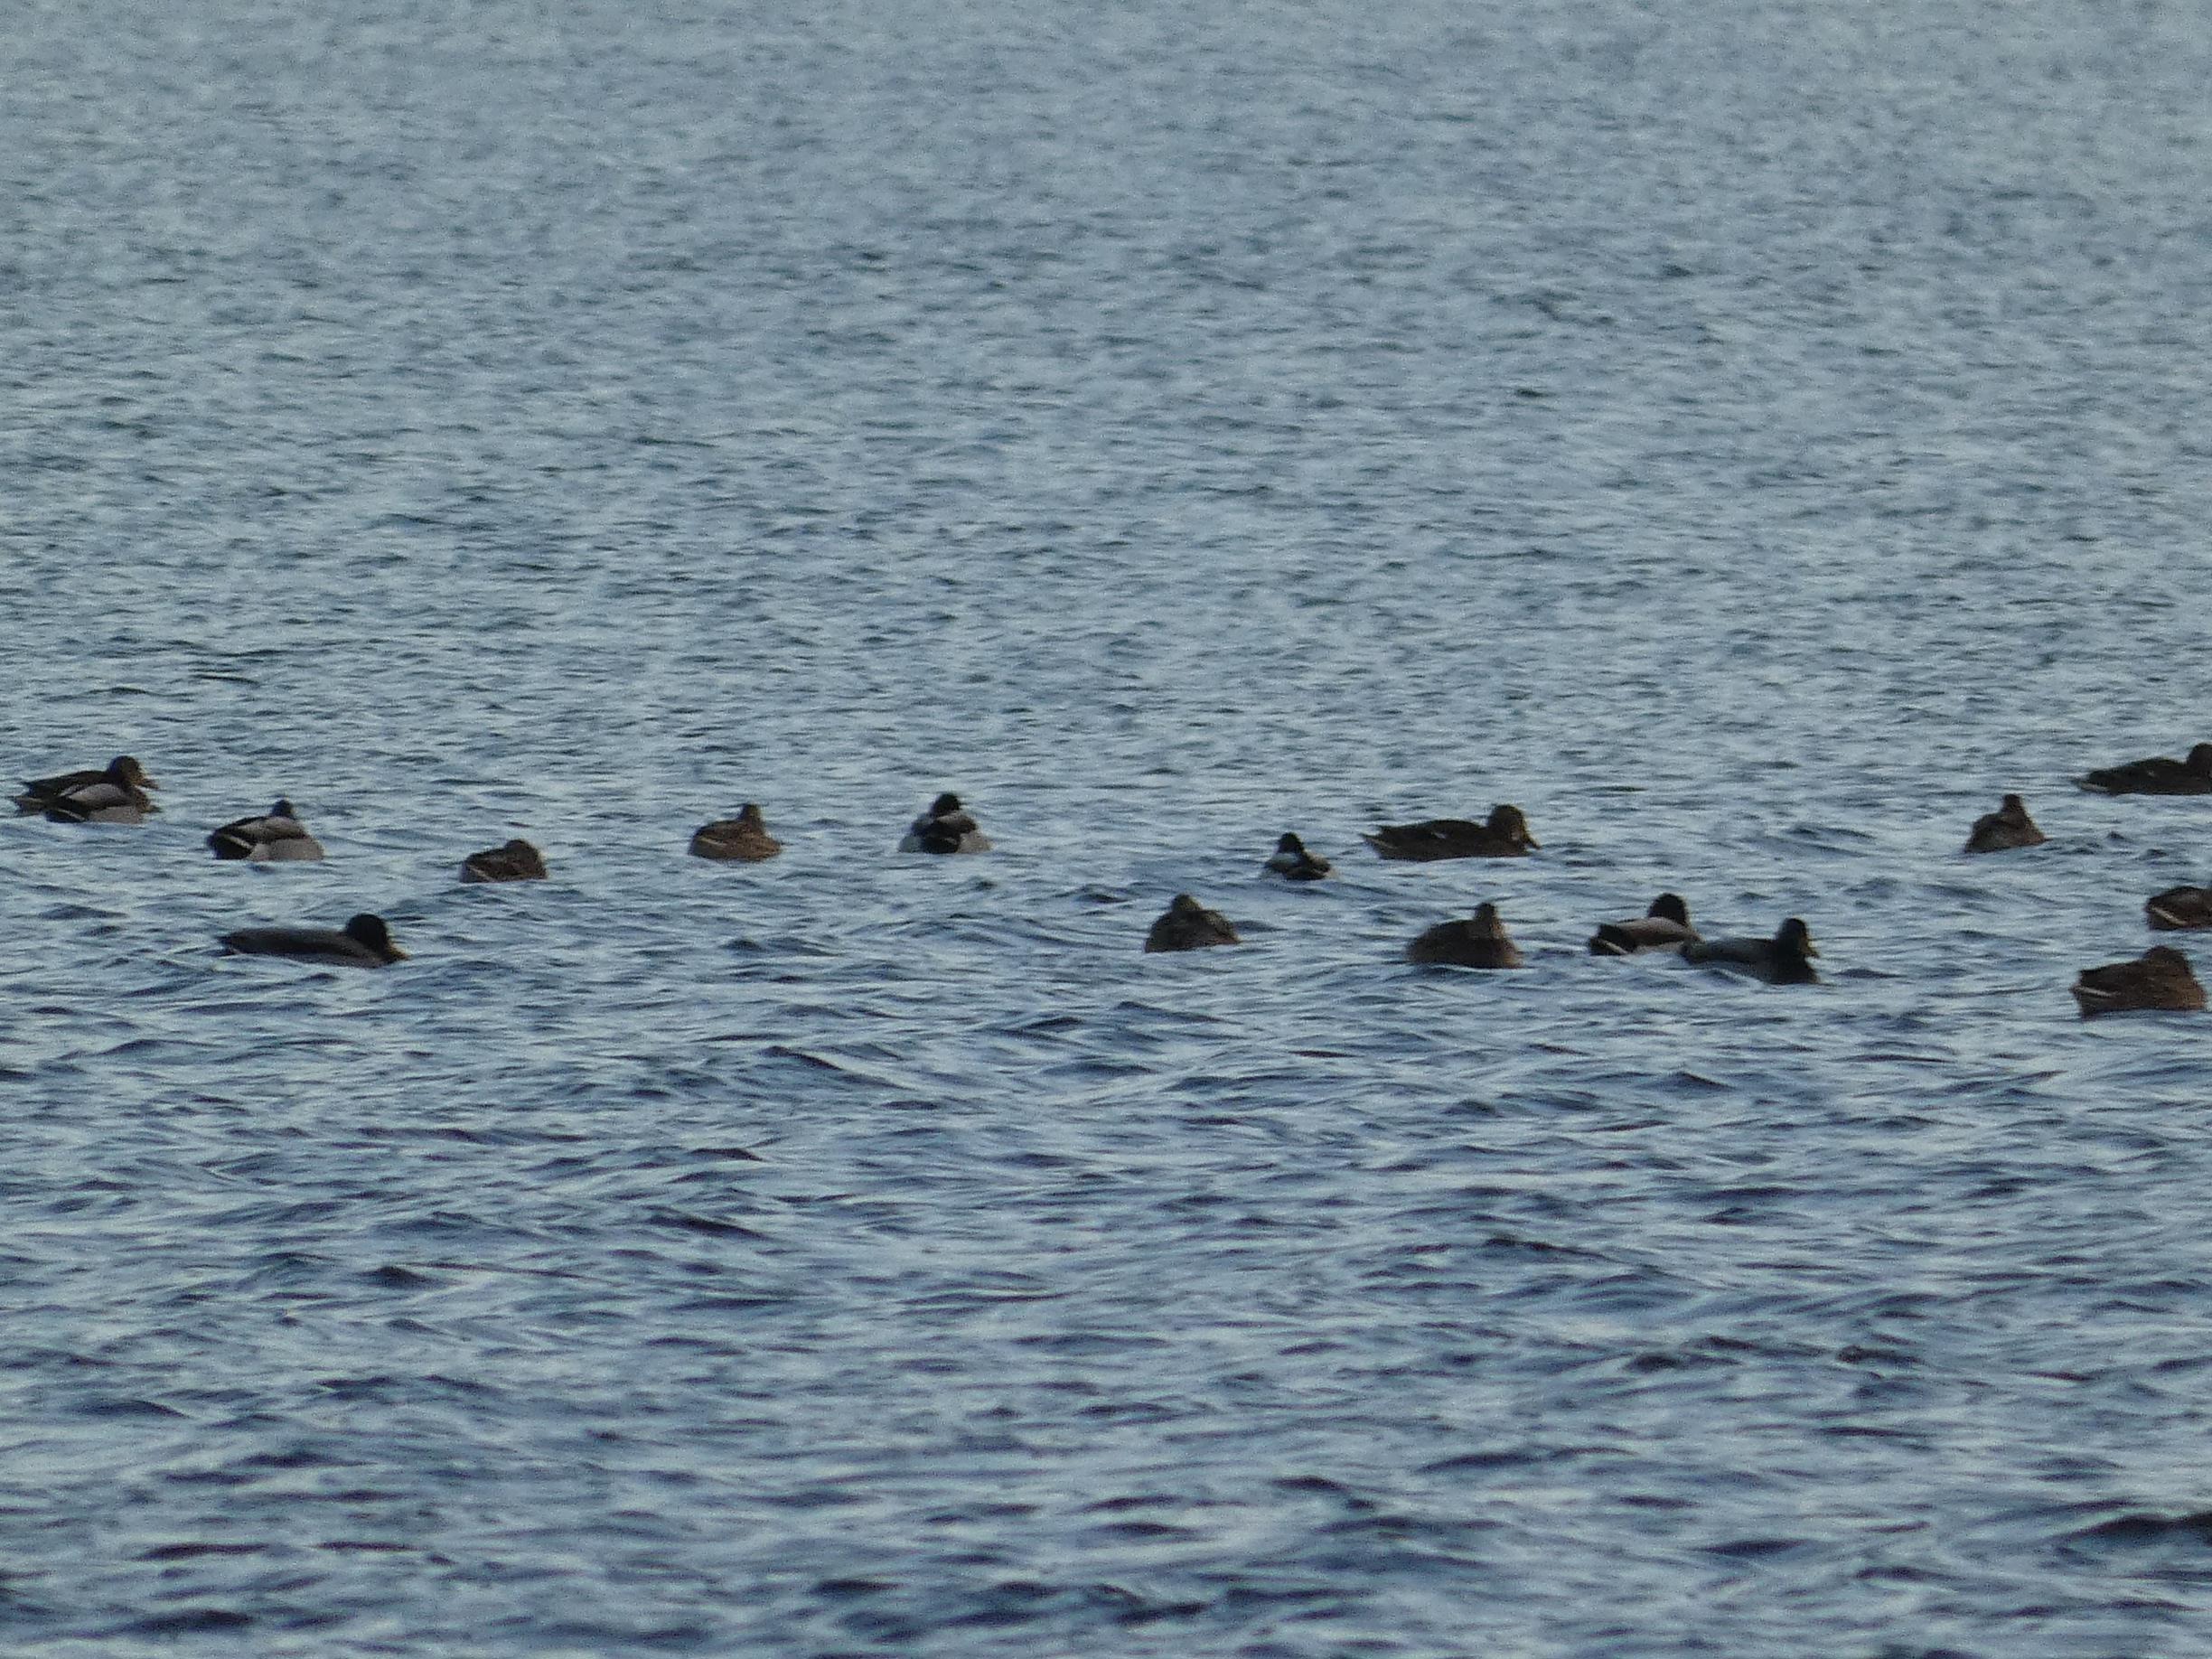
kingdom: Animalia
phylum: Chordata
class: Aves
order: Anseriformes
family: Anatidae
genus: Anas
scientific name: Anas platyrhynchos
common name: Gråand
